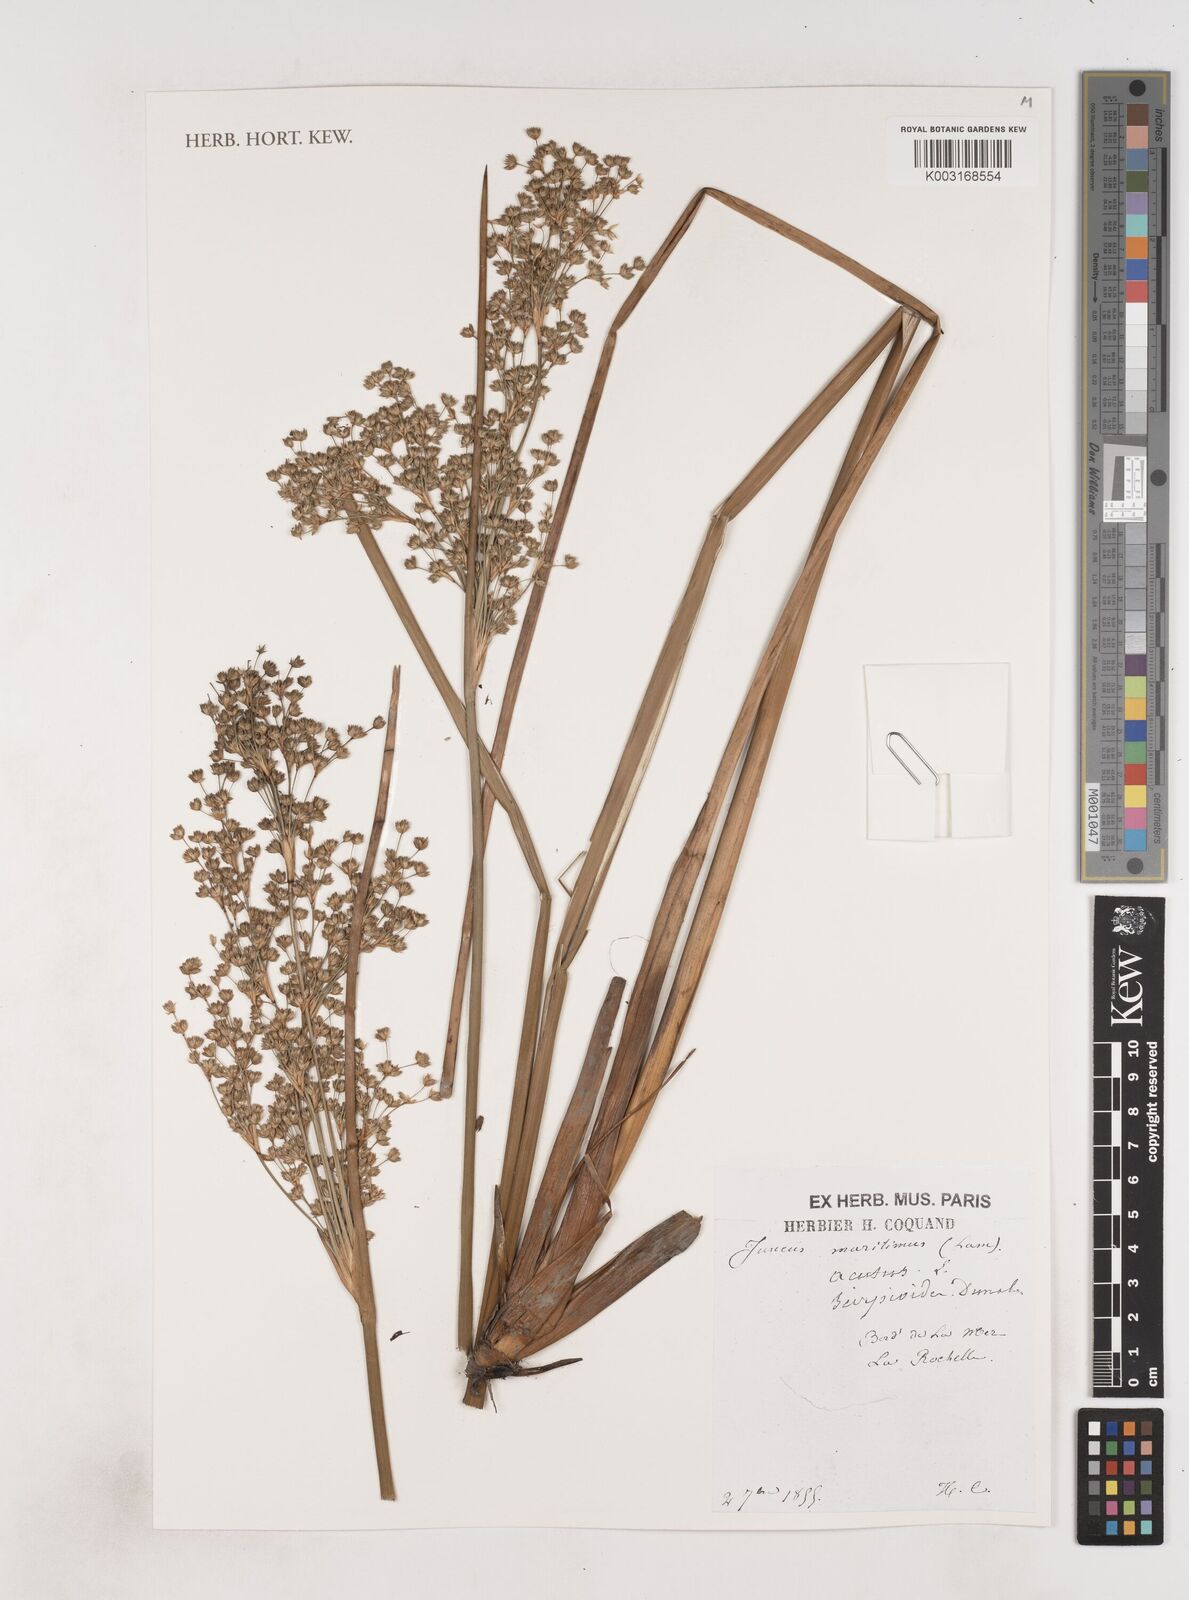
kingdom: Plantae
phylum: Tracheophyta
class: Liliopsida
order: Poales
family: Juncaceae
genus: Juncus
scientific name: Juncus maritimus
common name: Sea rush
